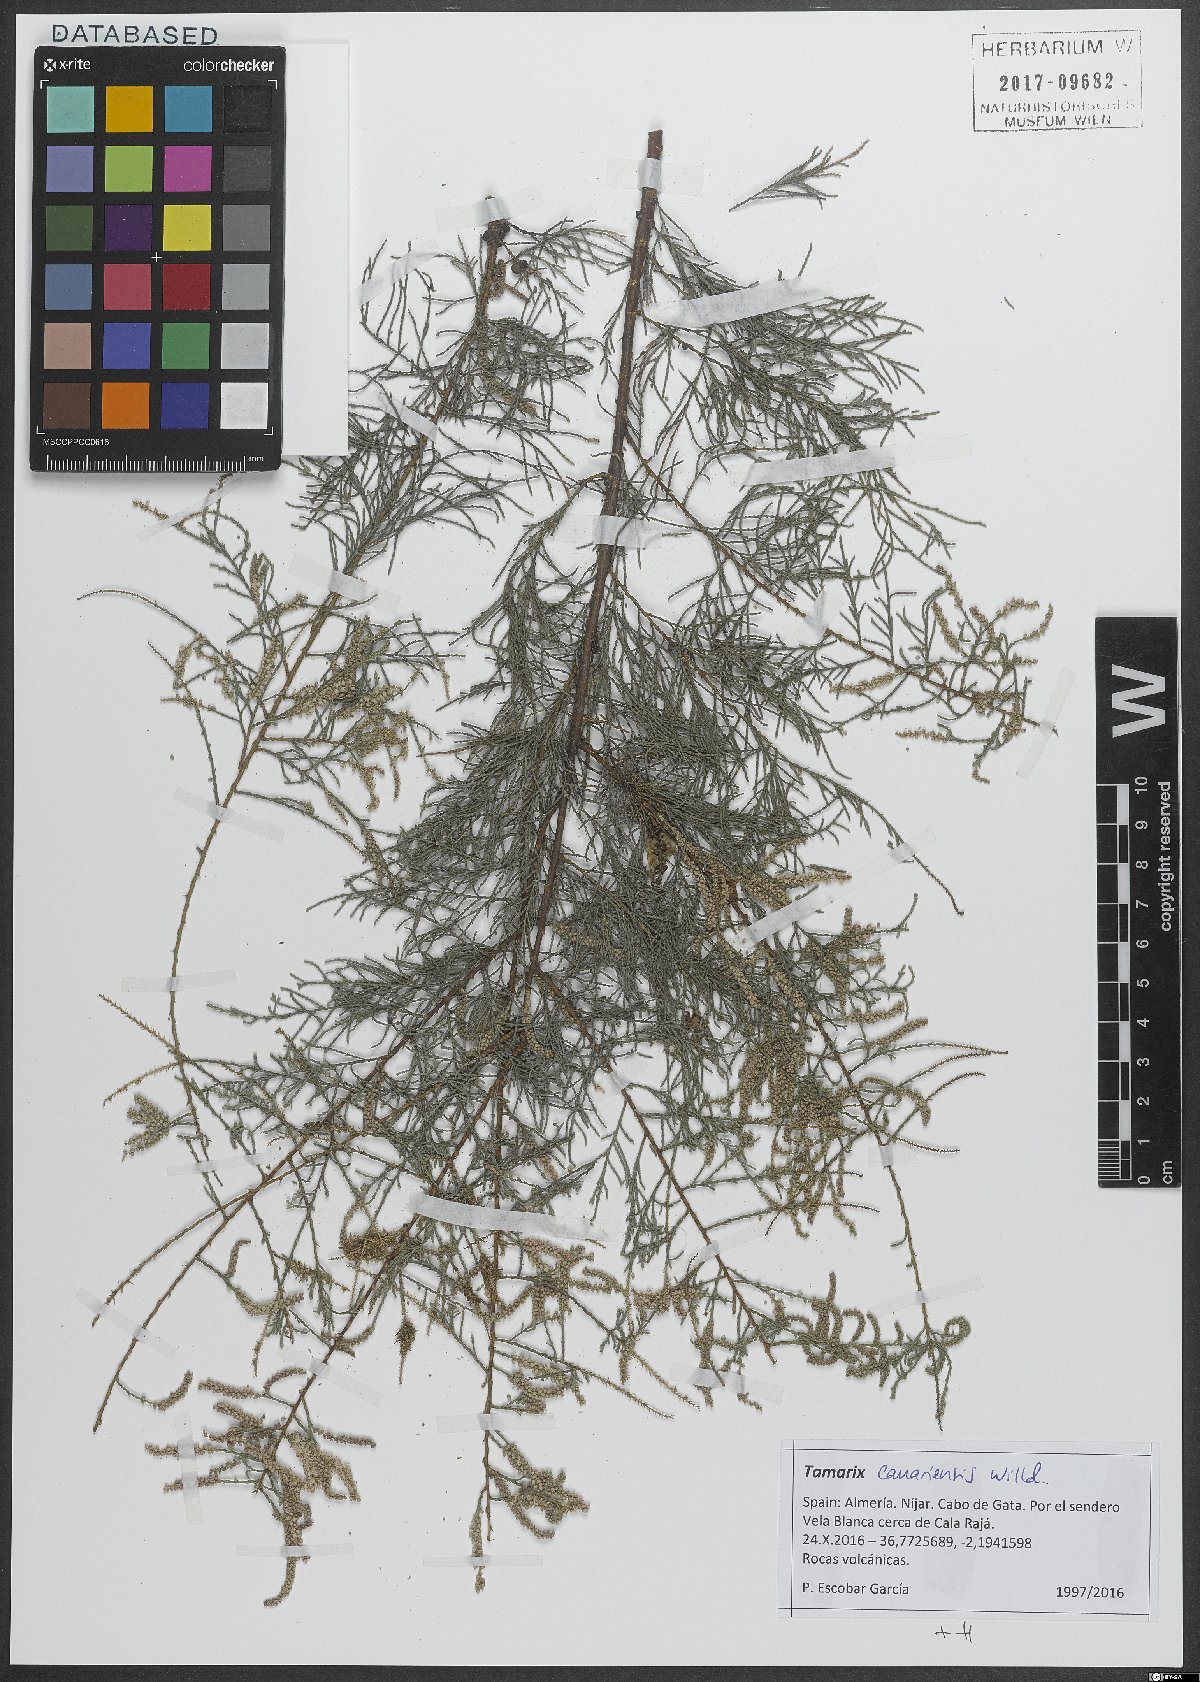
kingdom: Plantae
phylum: Tracheophyta
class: Magnoliopsida
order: Caryophyllales
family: Tamaricaceae
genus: Tamarix
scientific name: Tamarix canariensis
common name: Canary island tamarisk
